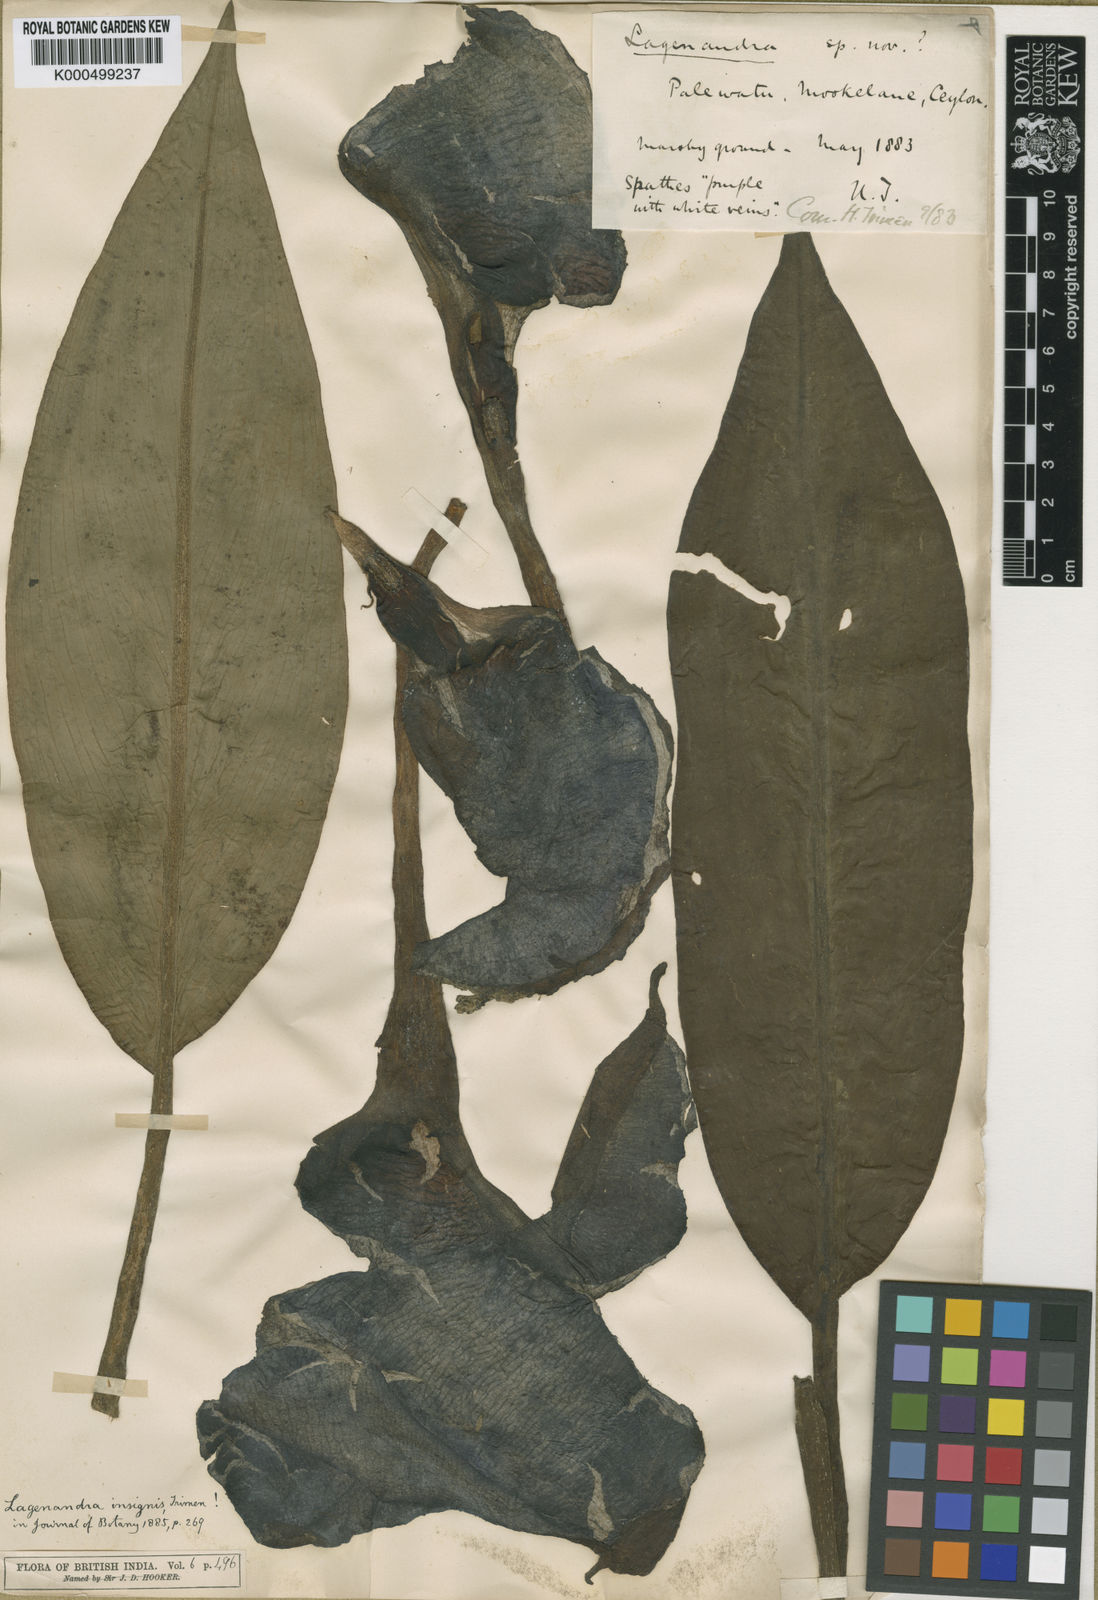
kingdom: Plantae
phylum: Tracheophyta
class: Liliopsida
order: Alismatales
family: Araceae
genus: Lagenandra
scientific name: Lagenandra ovata
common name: Malayan sword
